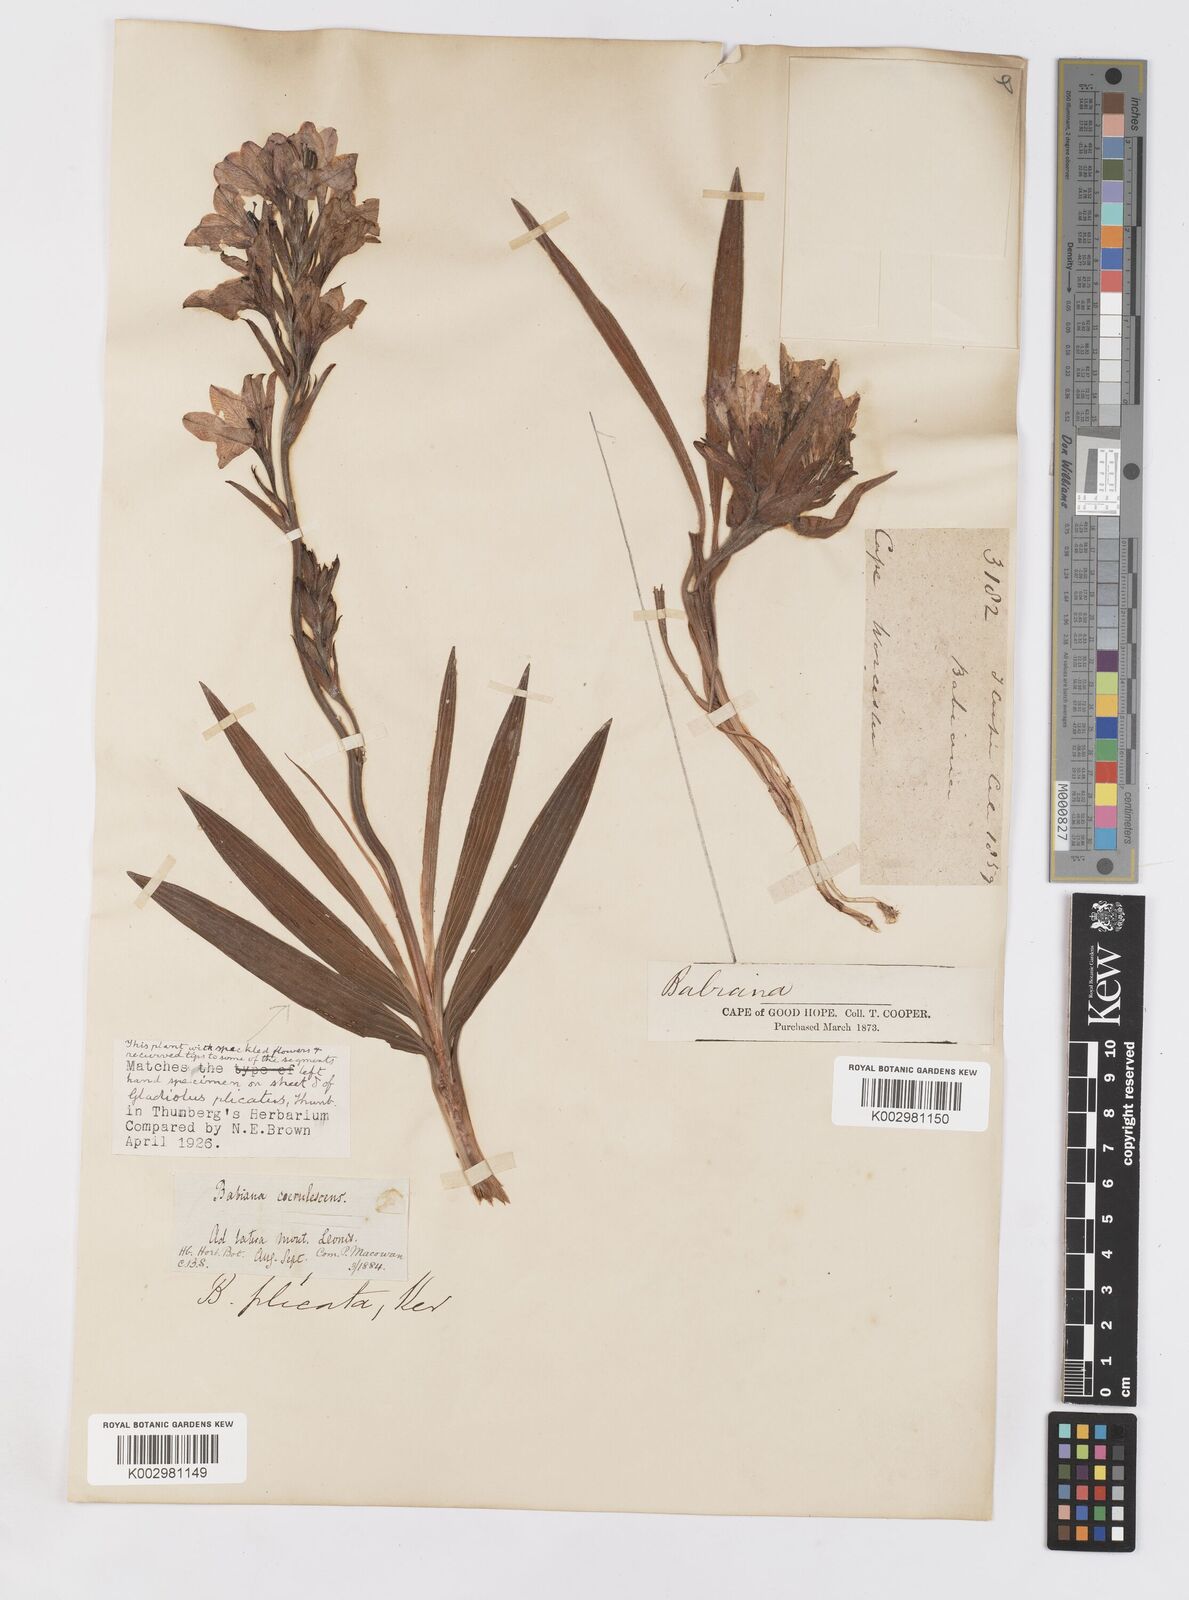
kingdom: Plantae
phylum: Tracheophyta
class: Liliopsida
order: Asparagales
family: Iridaceae
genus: Babiana
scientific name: Babiana fragrans
